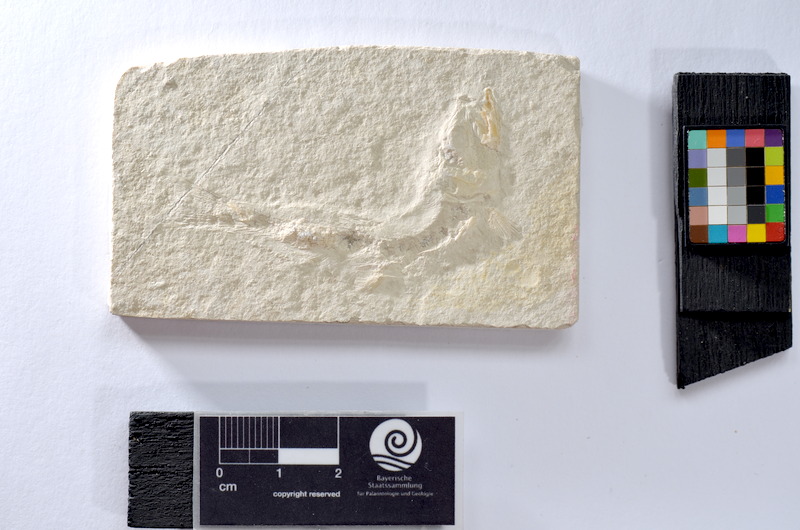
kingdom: Animalia
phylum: Chordata
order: Salmoniformes
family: Orthogonikleithridae
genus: Leptolepides
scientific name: Leptolepides sprattiformis
